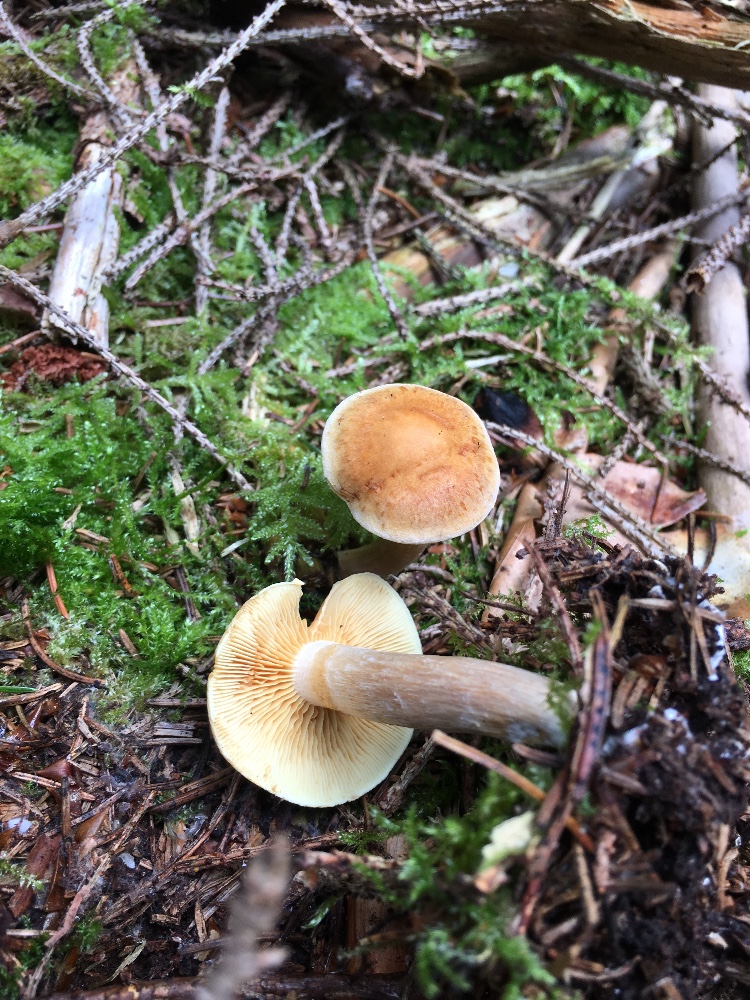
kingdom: Fungi
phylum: Basidiomycota
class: Agaricomycetes
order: Agaricales
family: Hymenogastraceae
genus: Gymnopilus
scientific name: Gymnopilus penetrans
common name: plettet flammehat
